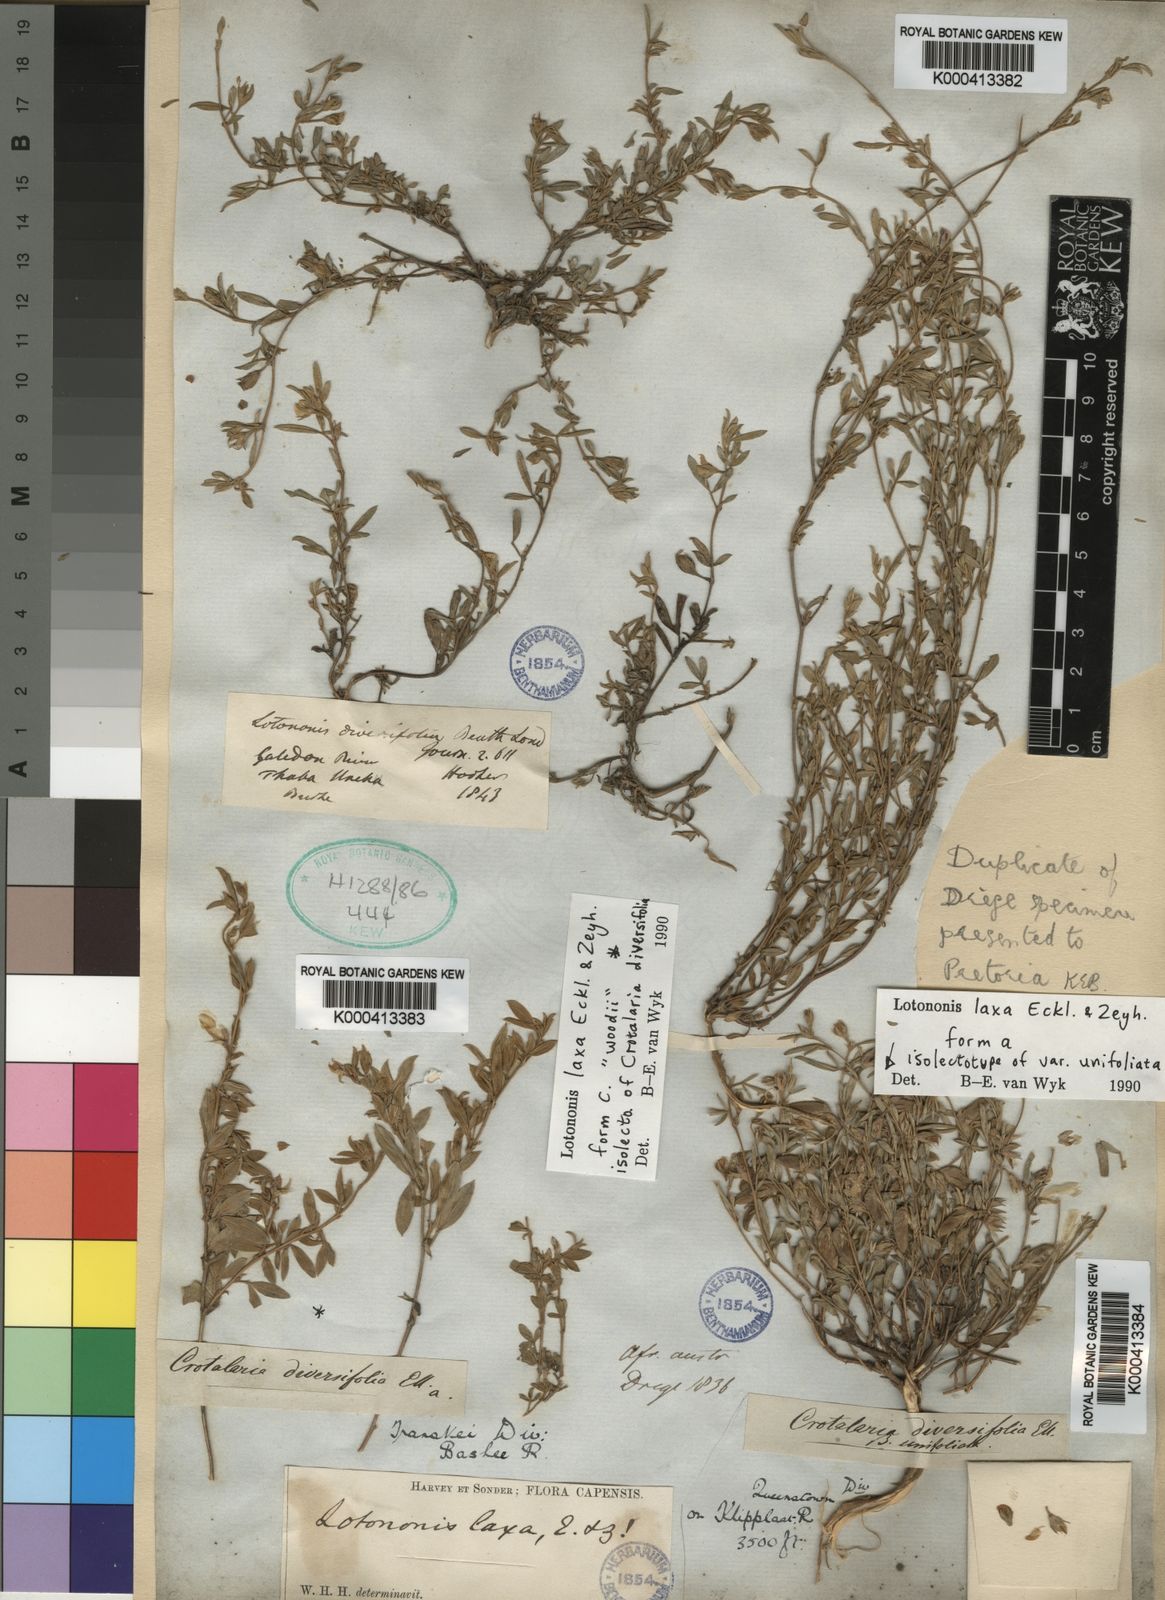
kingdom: Plantae
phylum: Tracheophyta
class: Magnoliopsida
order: Fabales
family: Fabaceae
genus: Lotononis
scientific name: Lotononis laxa
